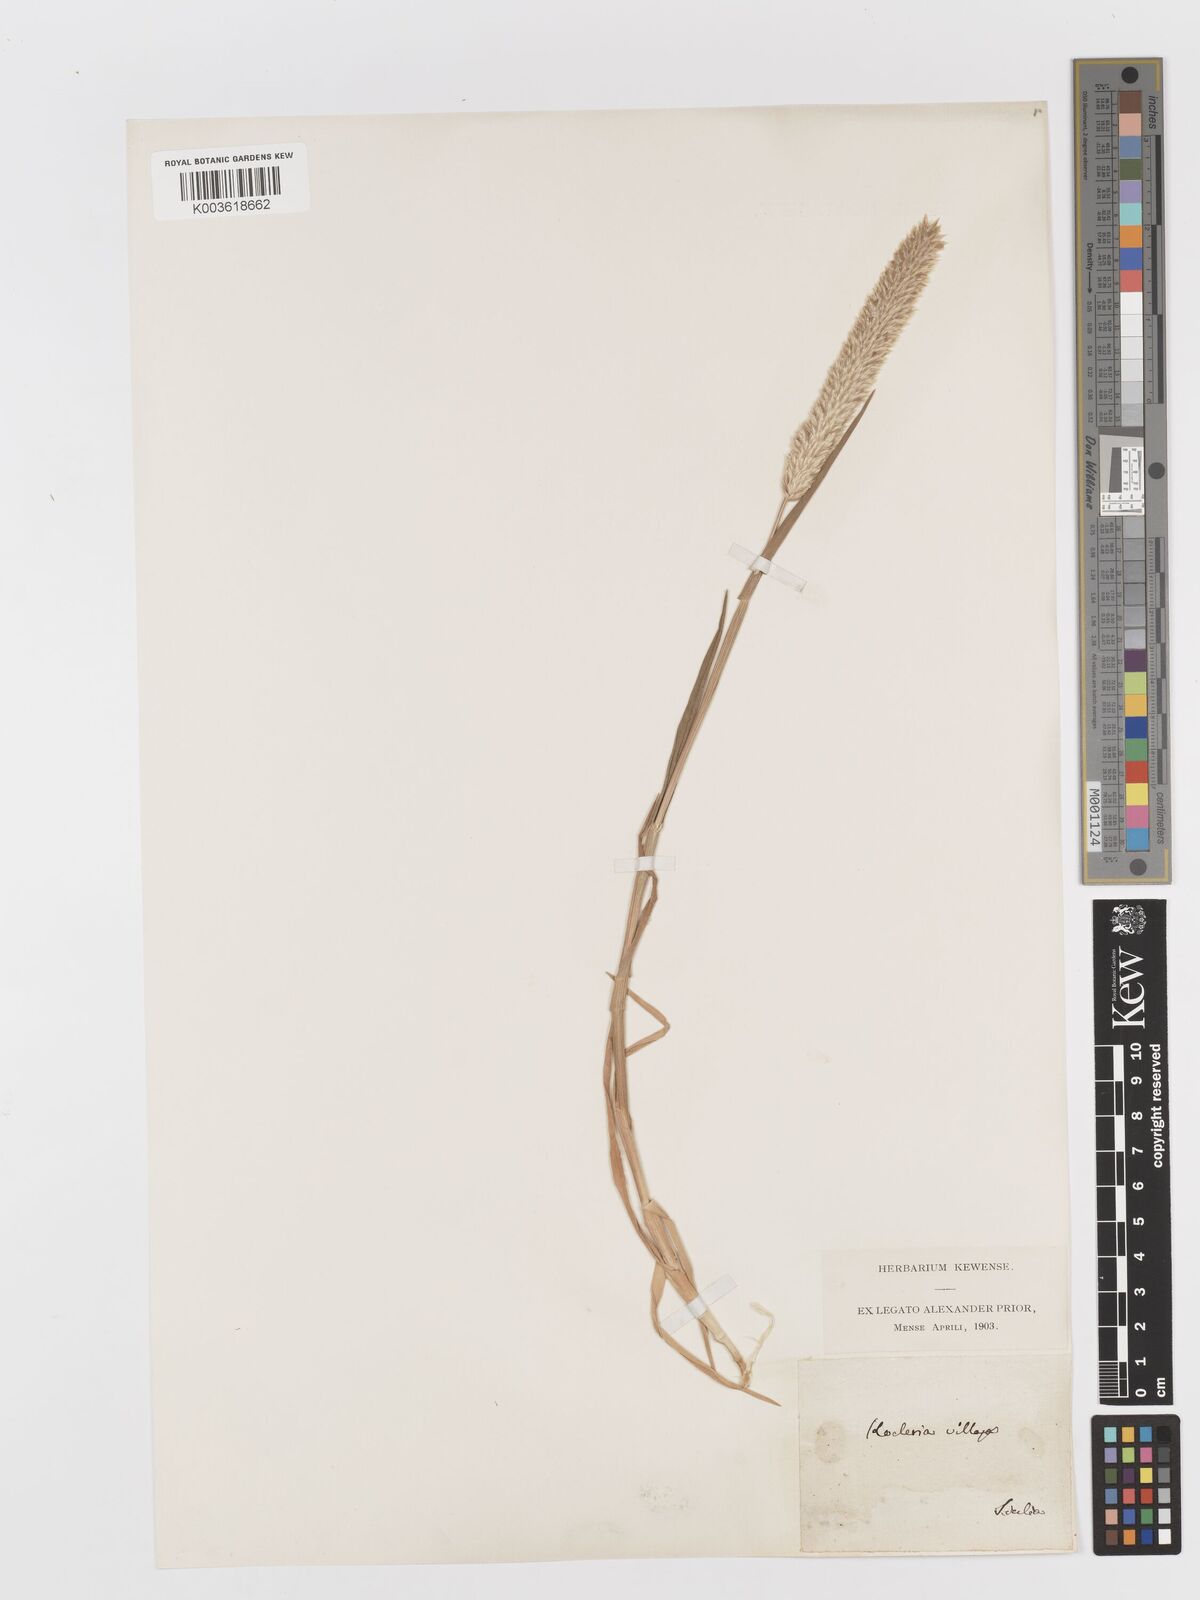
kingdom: Plantae
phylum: Tracheophyta
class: Liliopsida
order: Poales
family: Poaceae
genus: Rostraria
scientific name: Rostraria
